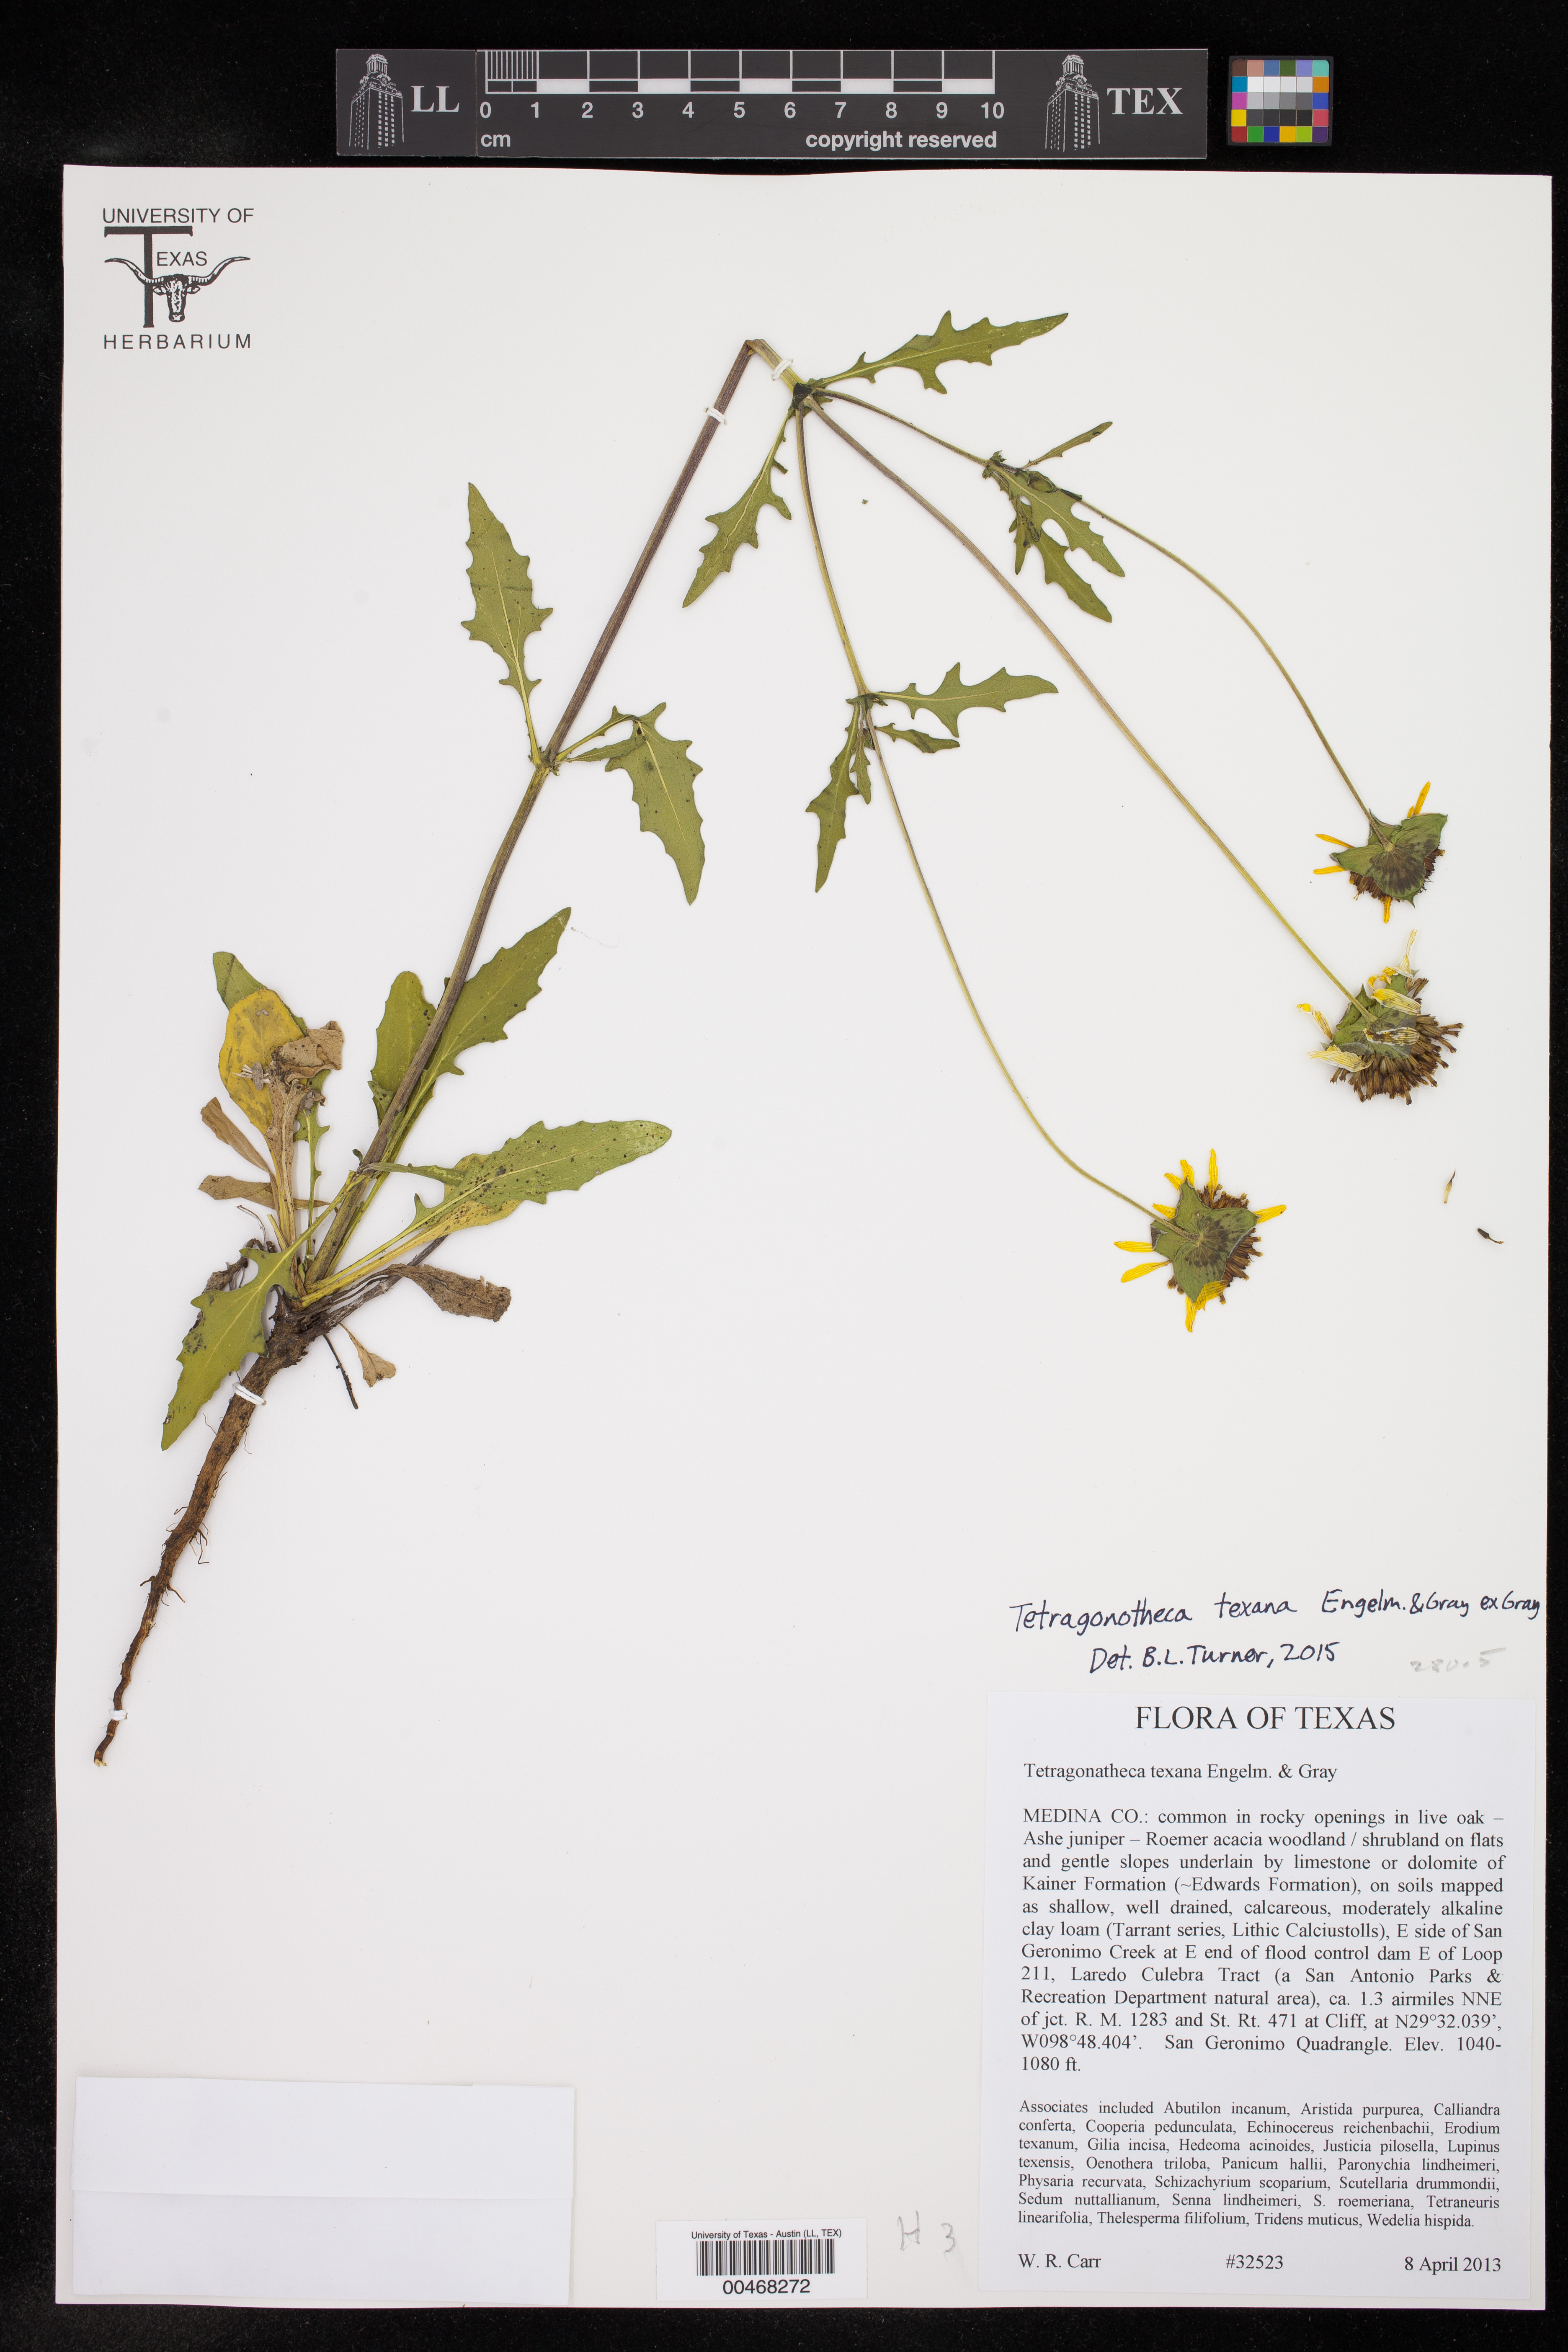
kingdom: Plantae
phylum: Tracheophyta
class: Magnoliopsida
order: Asterales
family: Asteraceae
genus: Tetragonotheca
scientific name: Tetragonotheca texana
